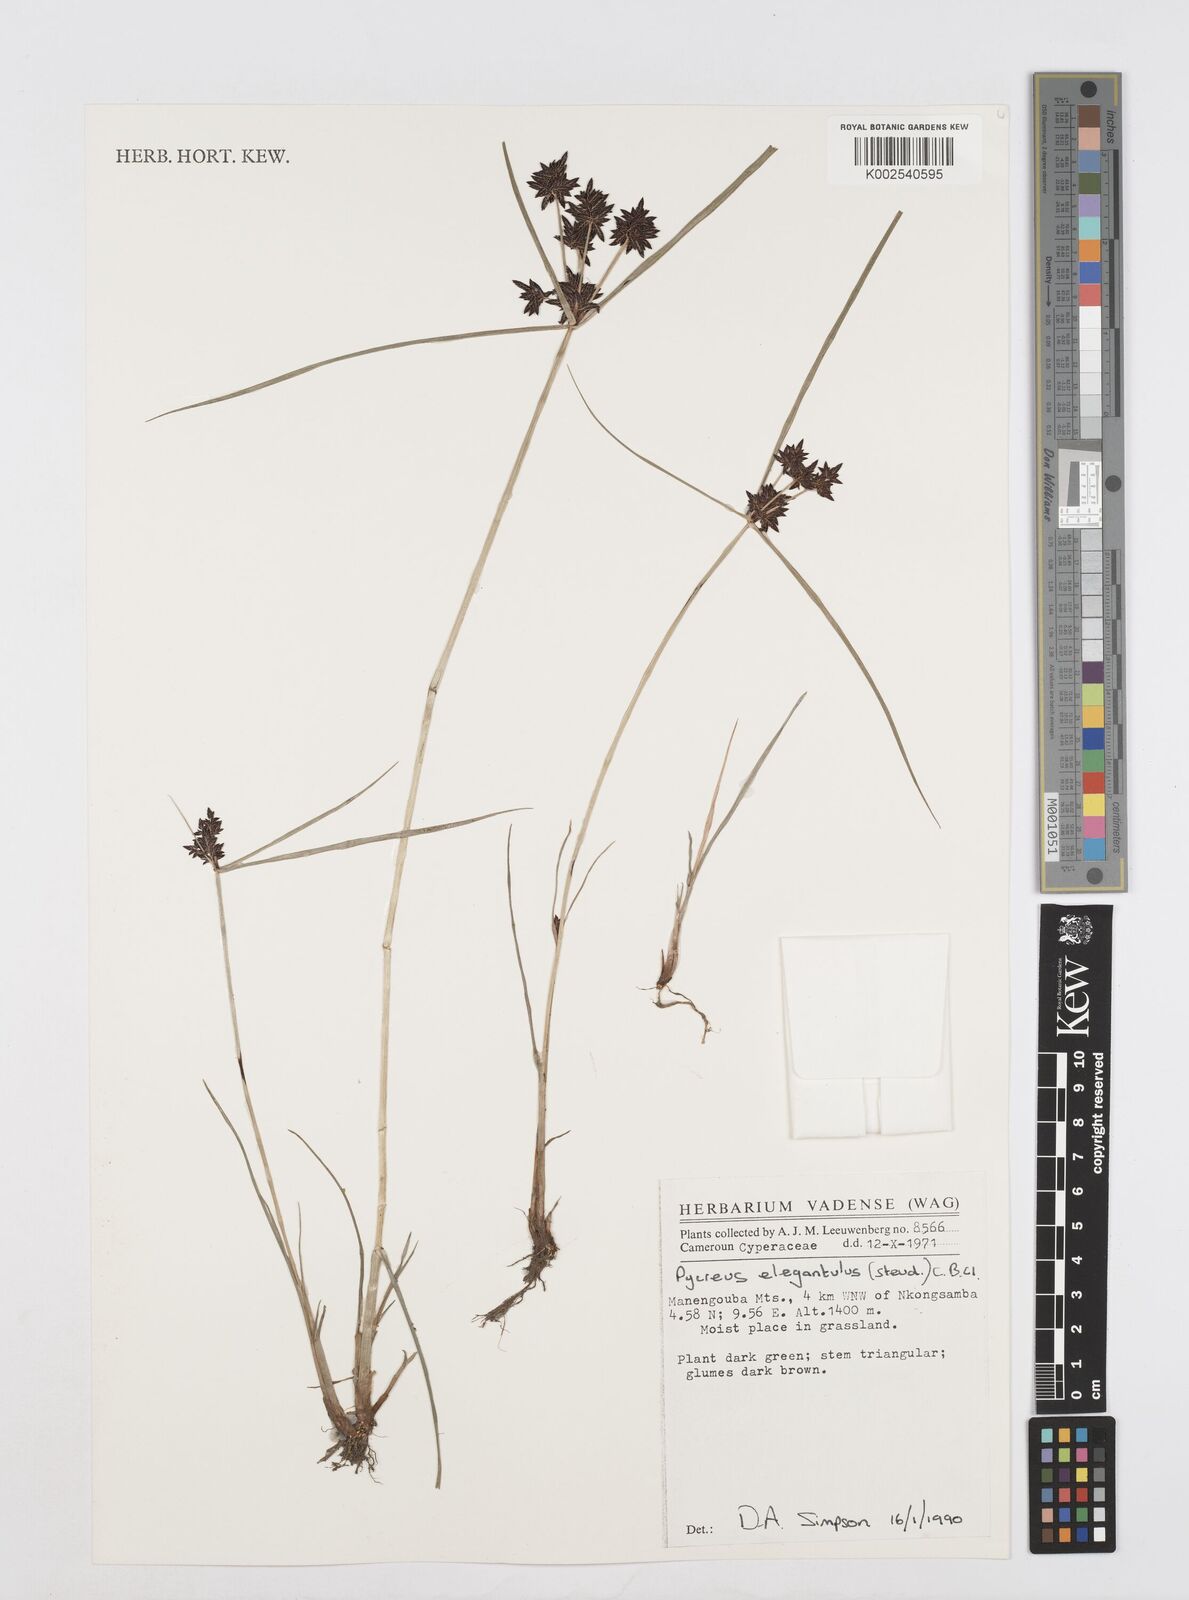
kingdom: Plantae
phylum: Tracheophyta
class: Liliopsida
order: Poales
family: Cyperaceae
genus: Cyperus
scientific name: Cyperus elegantulus
